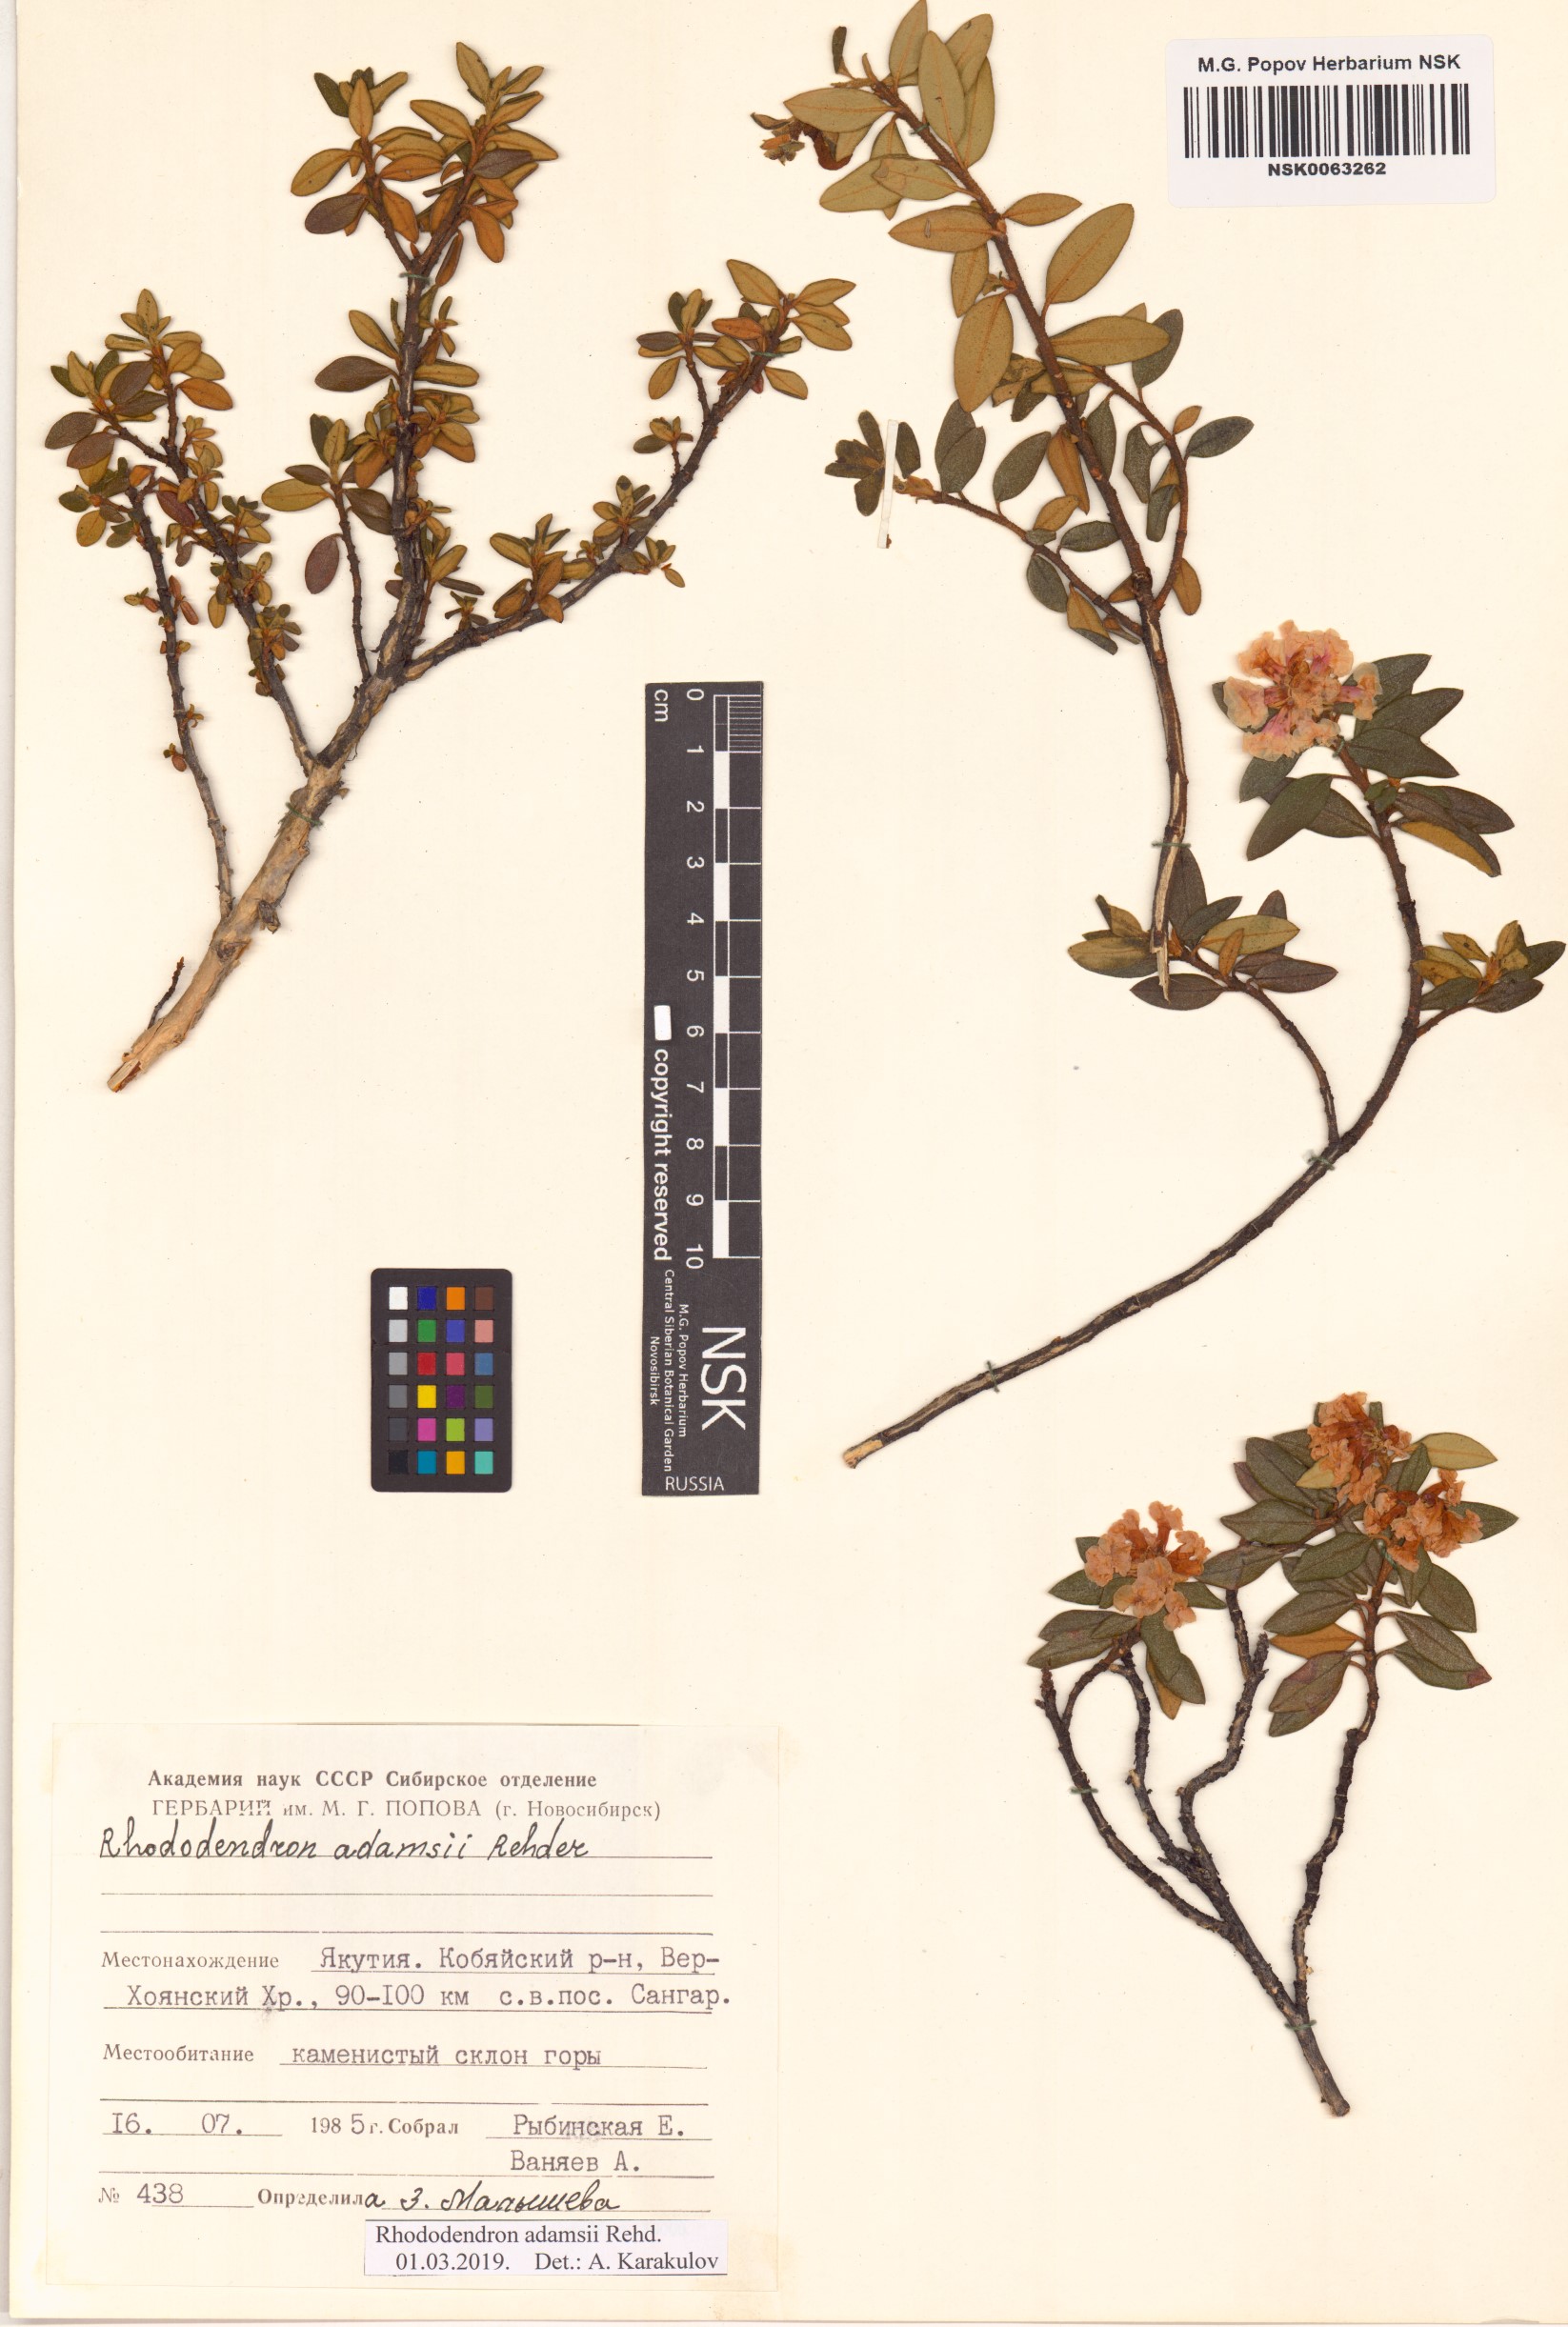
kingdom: Plantae
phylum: Tracheophyta
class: Magnoliopsida
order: Ericales
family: Ericaceae
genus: Rhododendron
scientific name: Rhododendron adamsii
